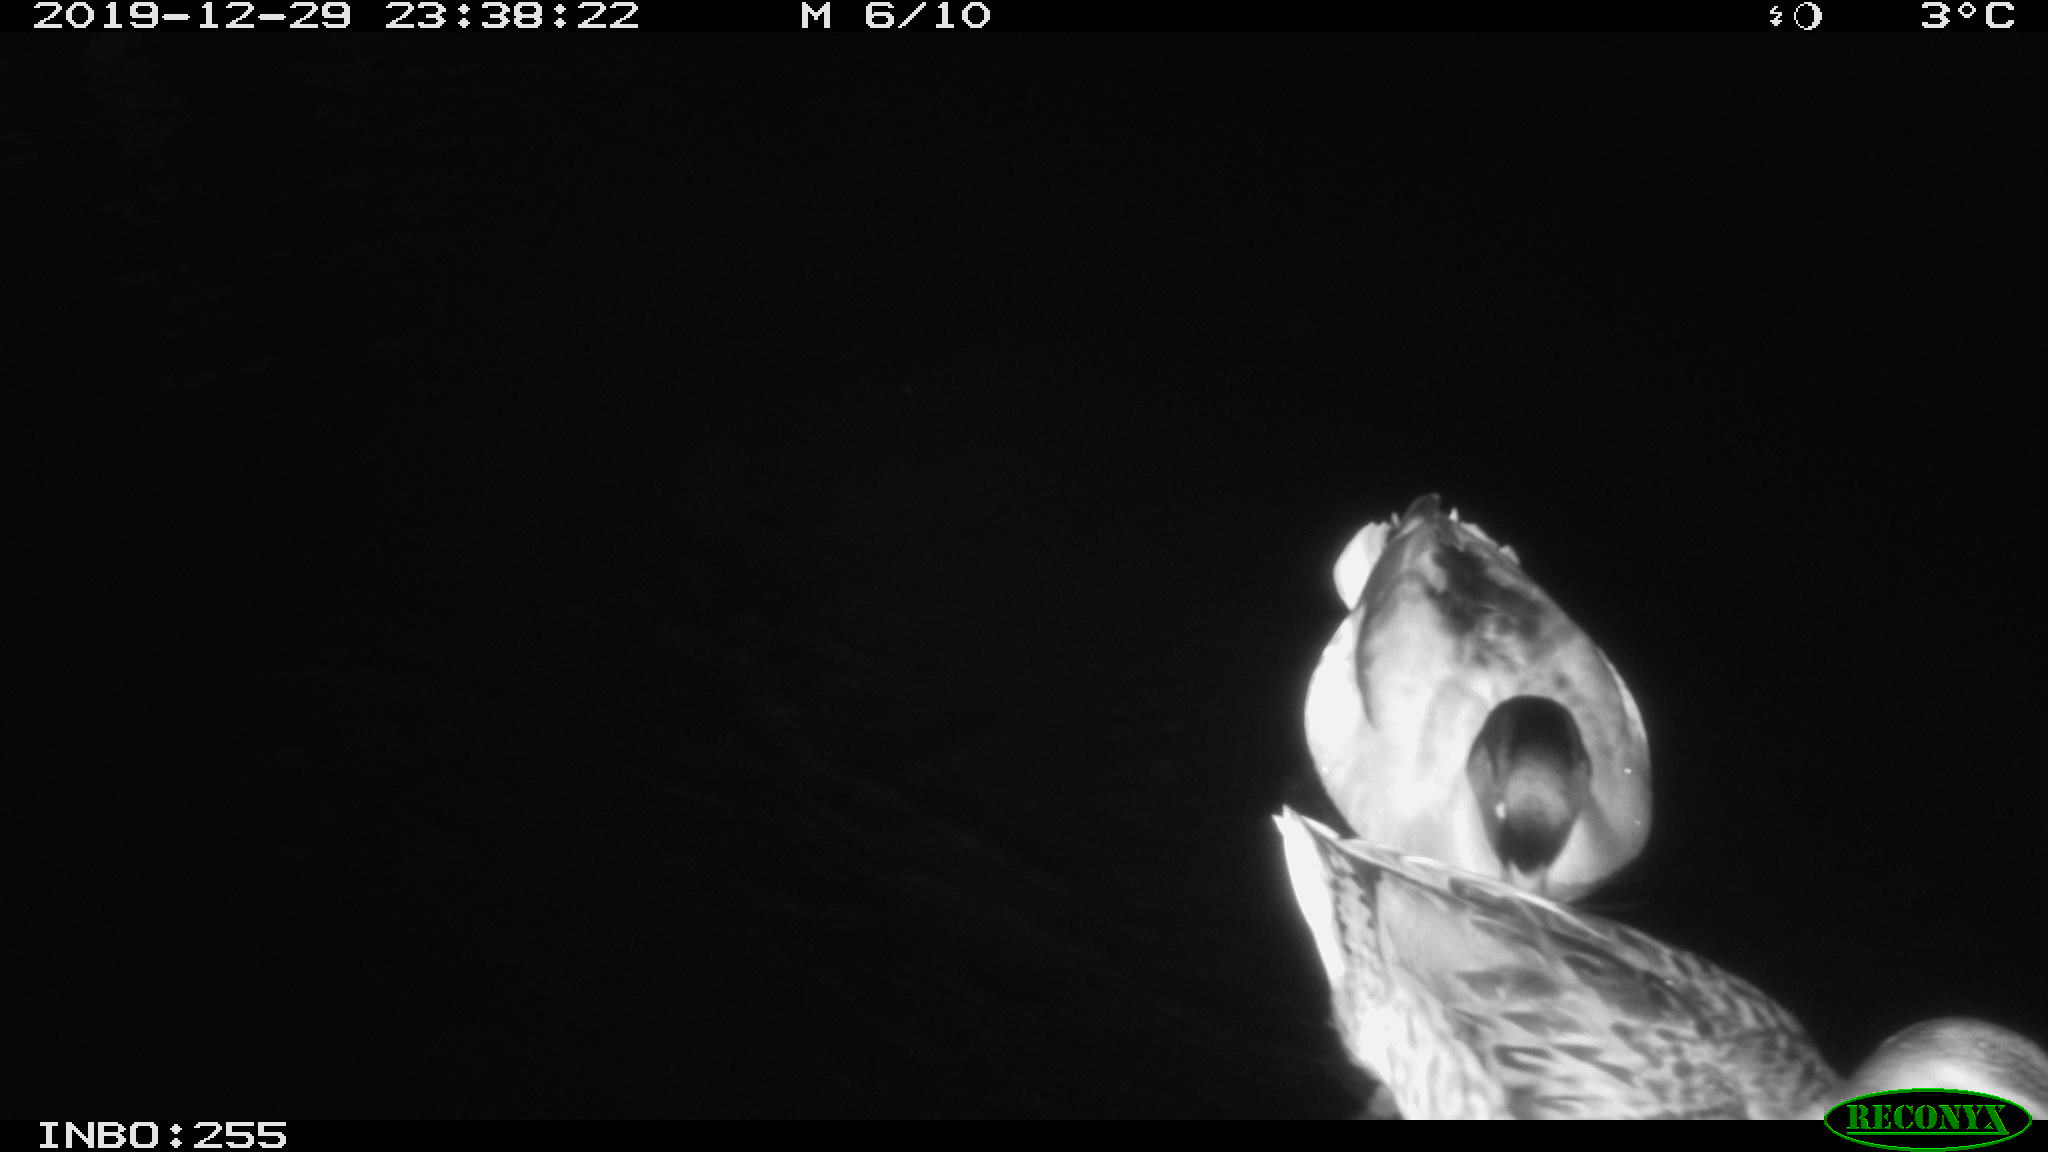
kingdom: Animalia
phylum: Chordata
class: Aves
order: Anseriformes
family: Anatidae
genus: Anas
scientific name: Anas platyrhynchos
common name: Mallard
